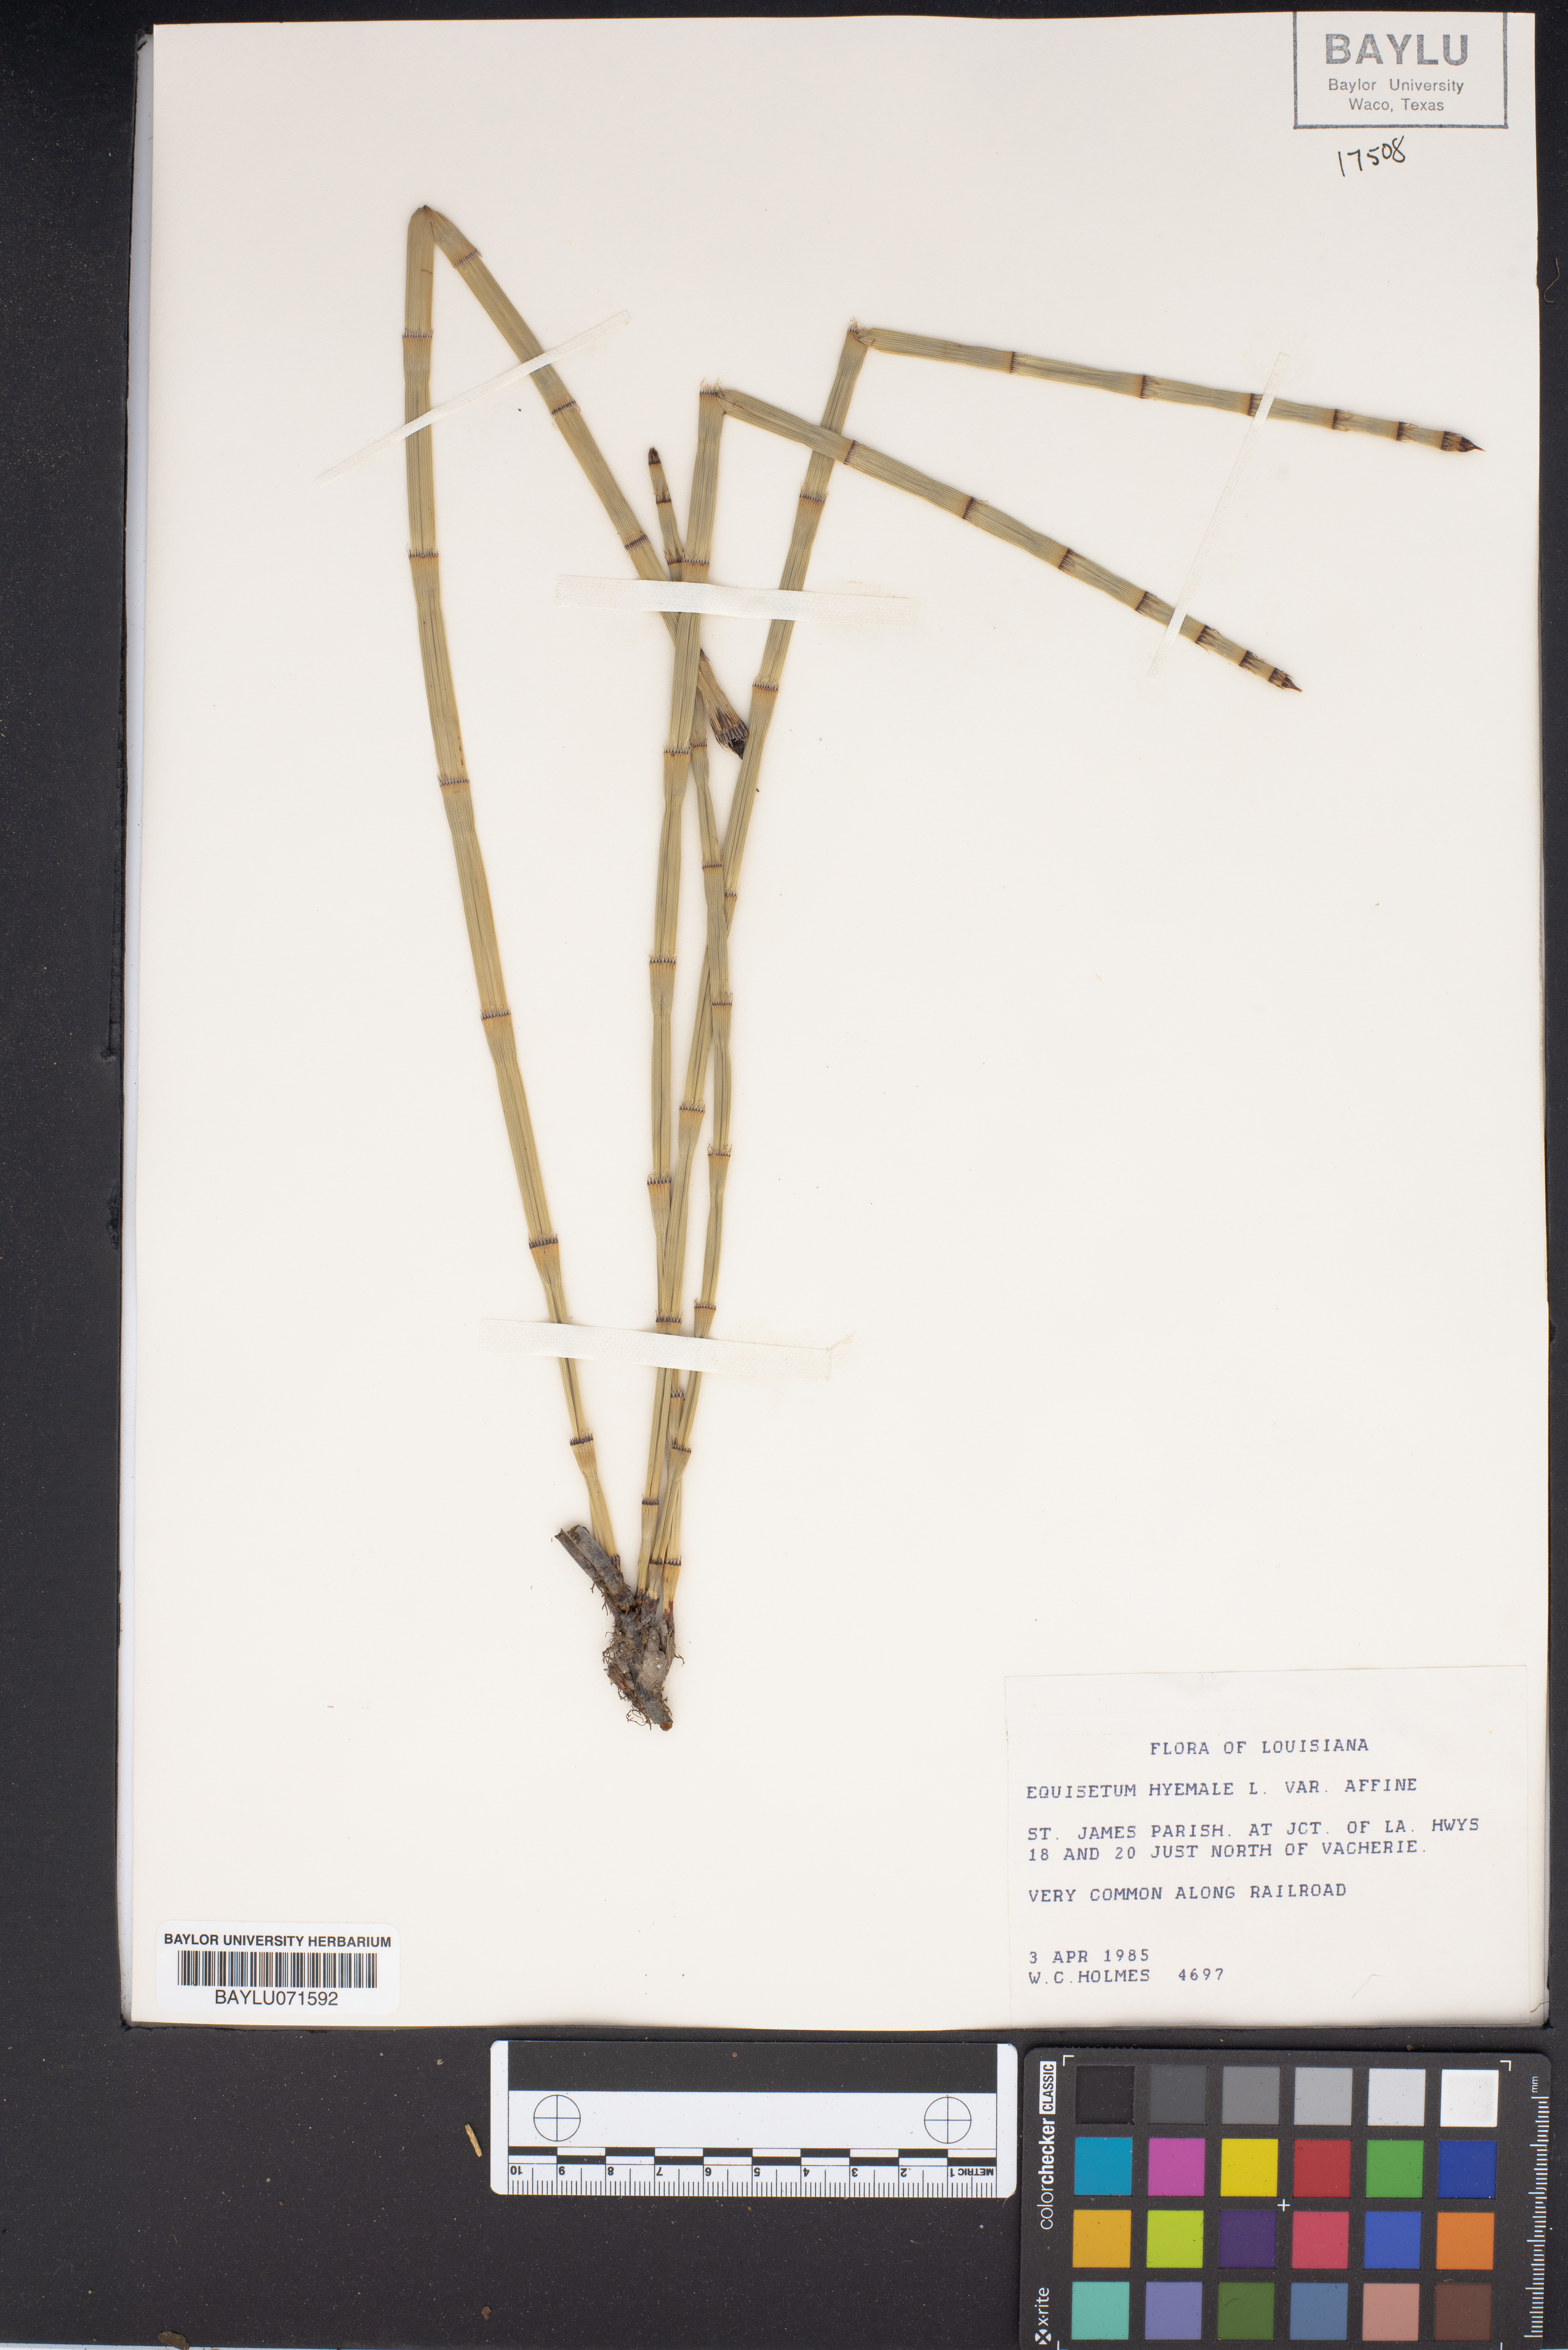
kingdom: Plantae
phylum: Tracheophyta
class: Polypodiopsida
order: Equisetales
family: Equisetaceae
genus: Equisetum
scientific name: Equisetum praealtum
